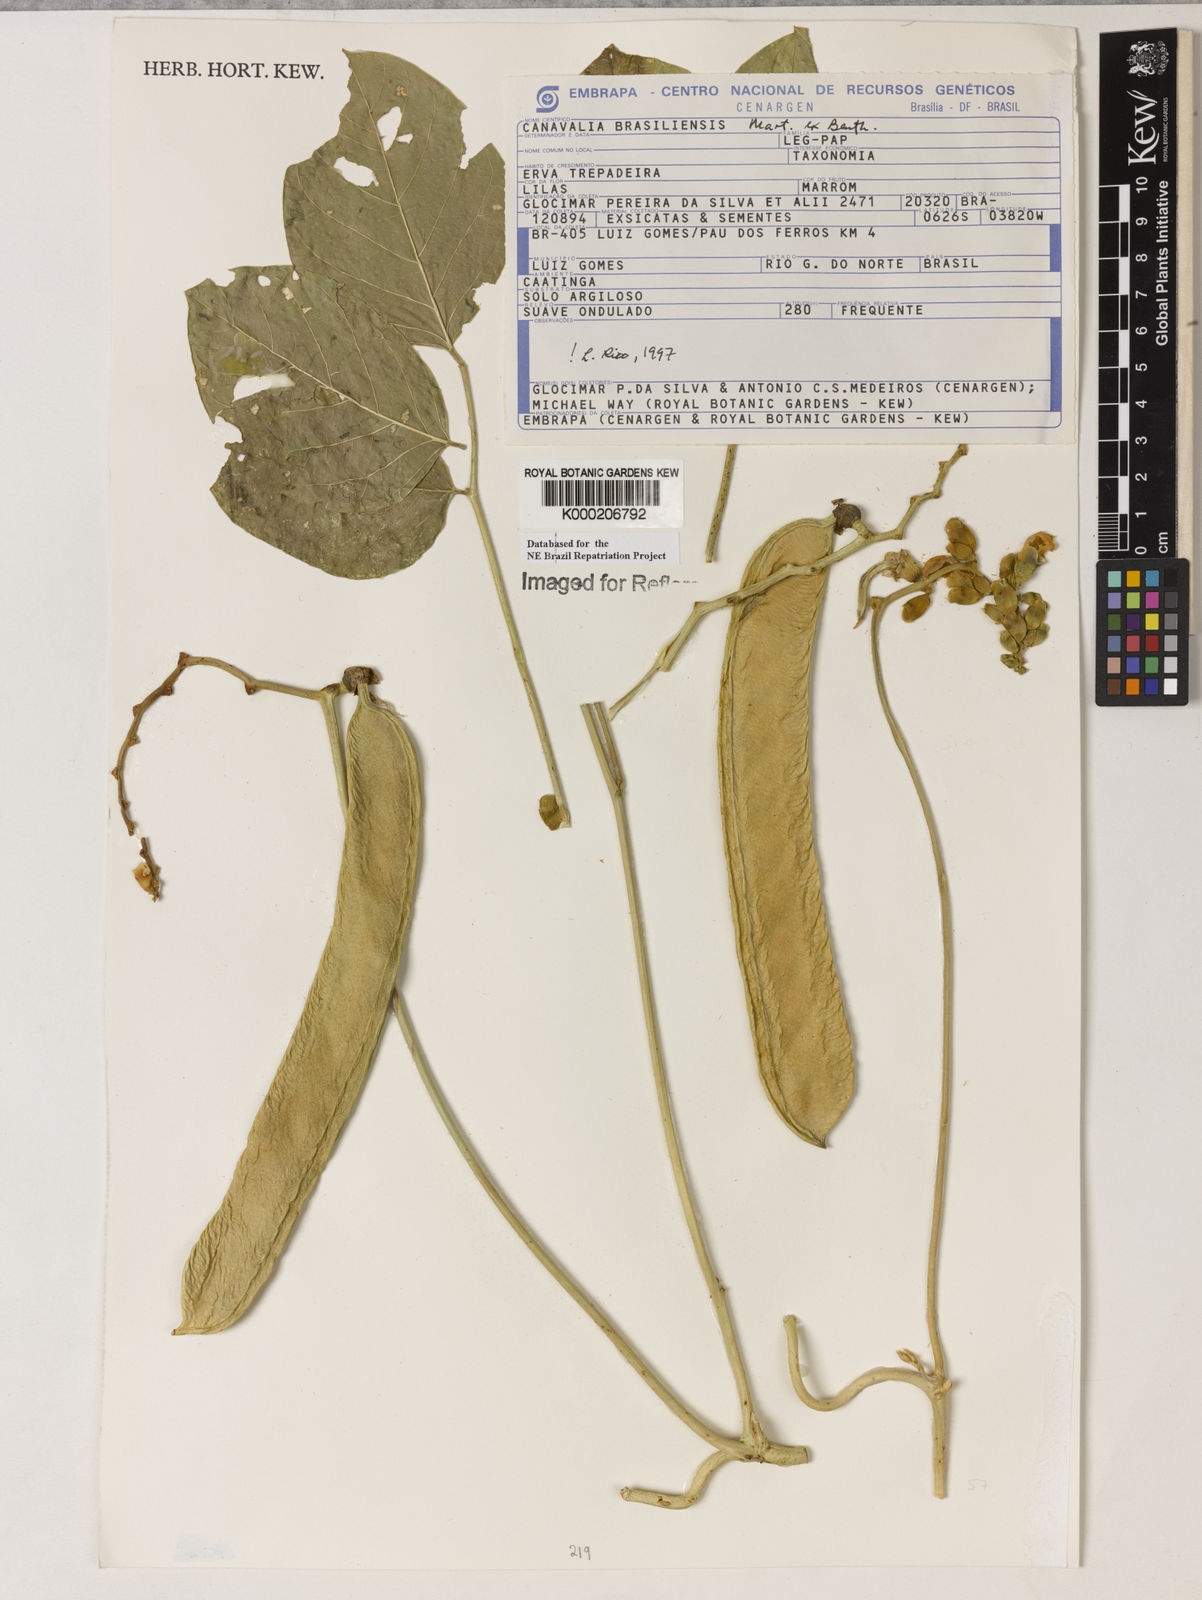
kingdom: Plantae
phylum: Tracheophyta
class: Magnoliopsida
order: Fabales
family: Fabaceae
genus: Canavalia
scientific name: Canavalia brasiliensis
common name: Barbicou-bean
